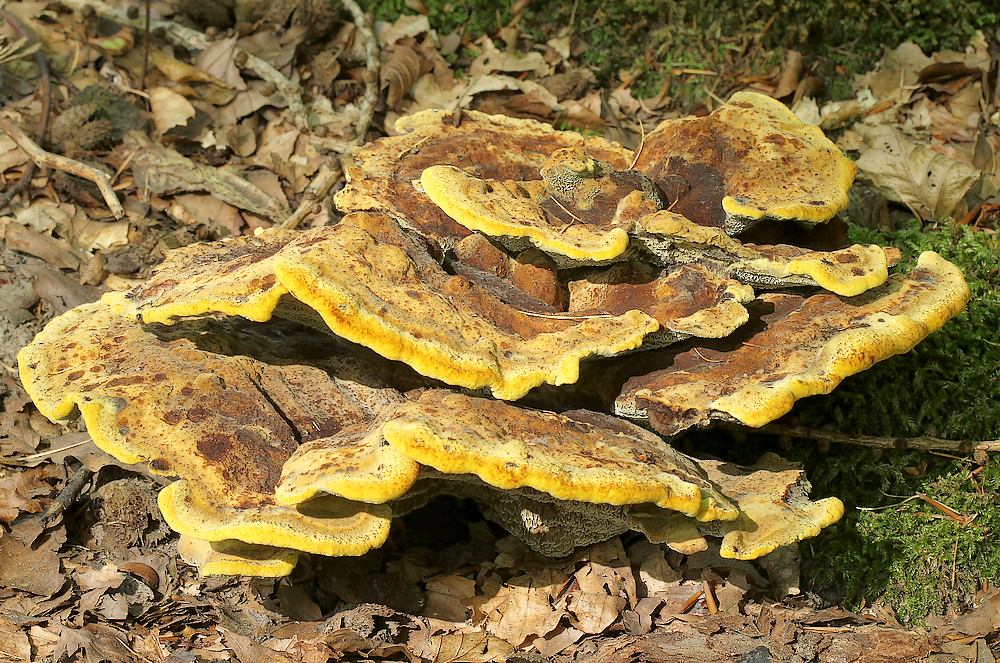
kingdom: Fungi
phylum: Basidiomycota
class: Agaricomycetes
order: Polyporales
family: Laetiporaceae
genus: Phaeolus
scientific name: Phaeolus schweinitzii
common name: brunporesvamp
